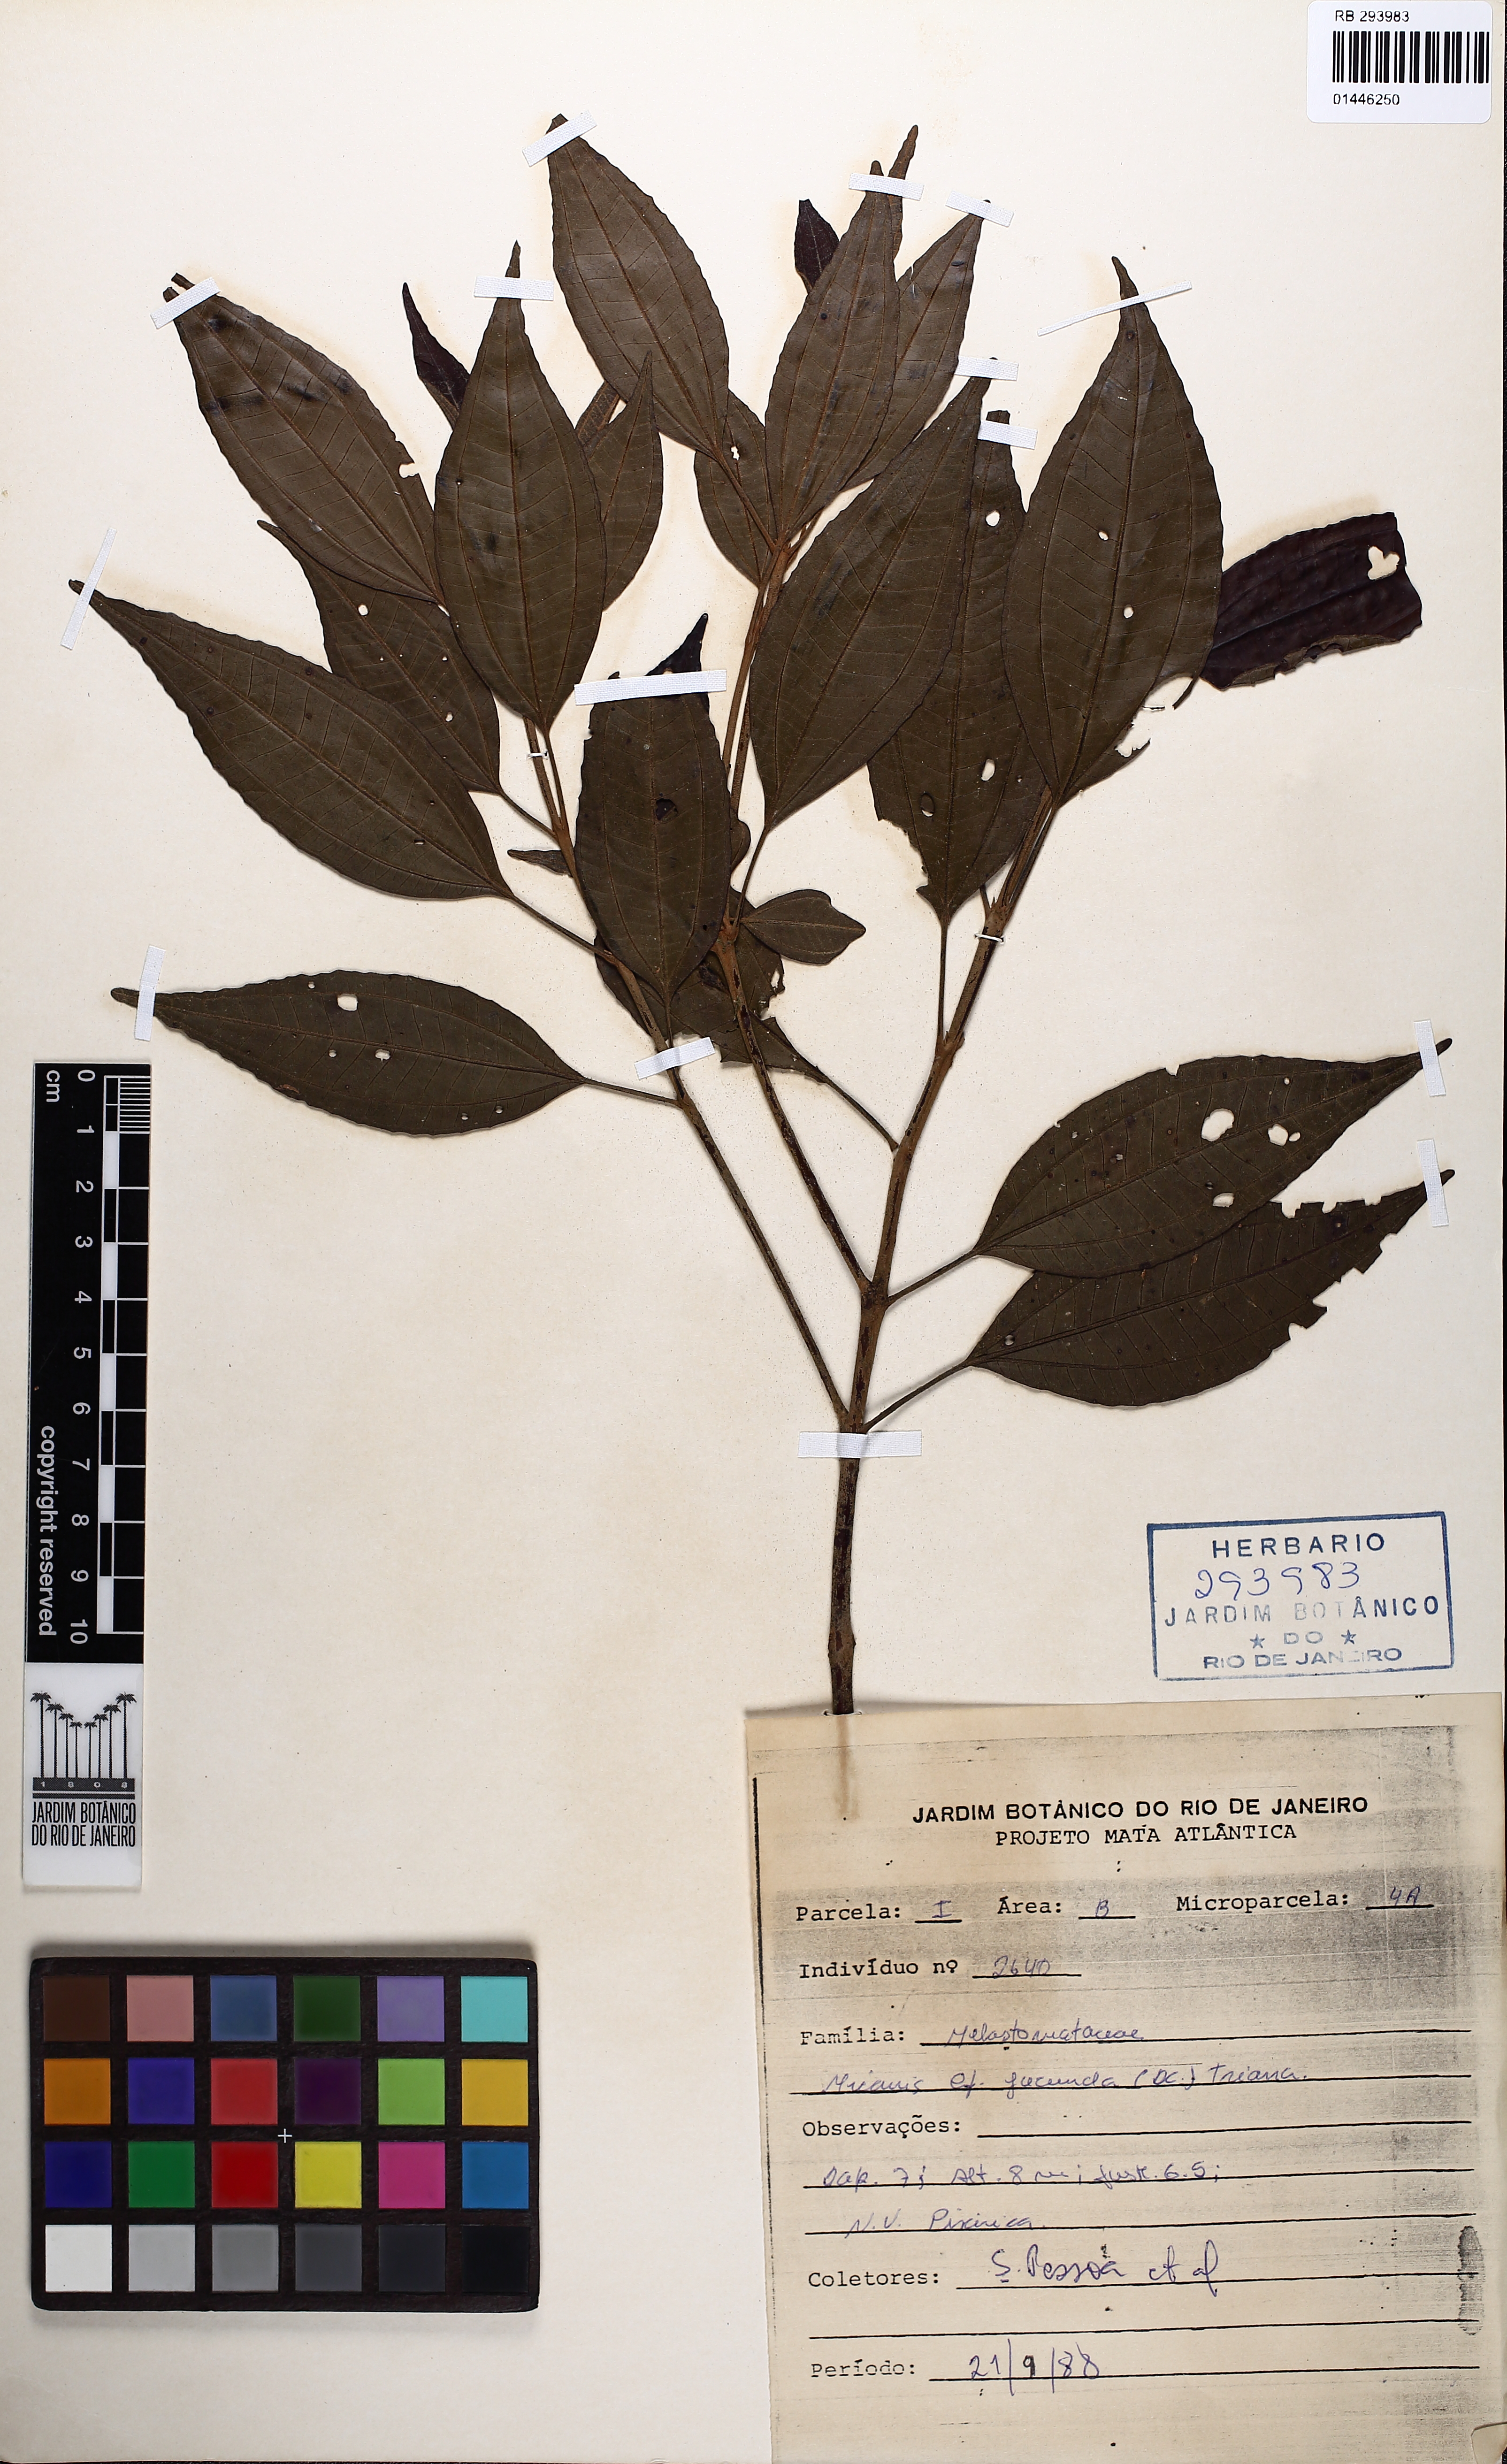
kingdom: Plantae
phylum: Tracheophyta
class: Magnoliopsida
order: Myrtales
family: Melastomataceae
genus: Miconia
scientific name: Miconia jucunda
